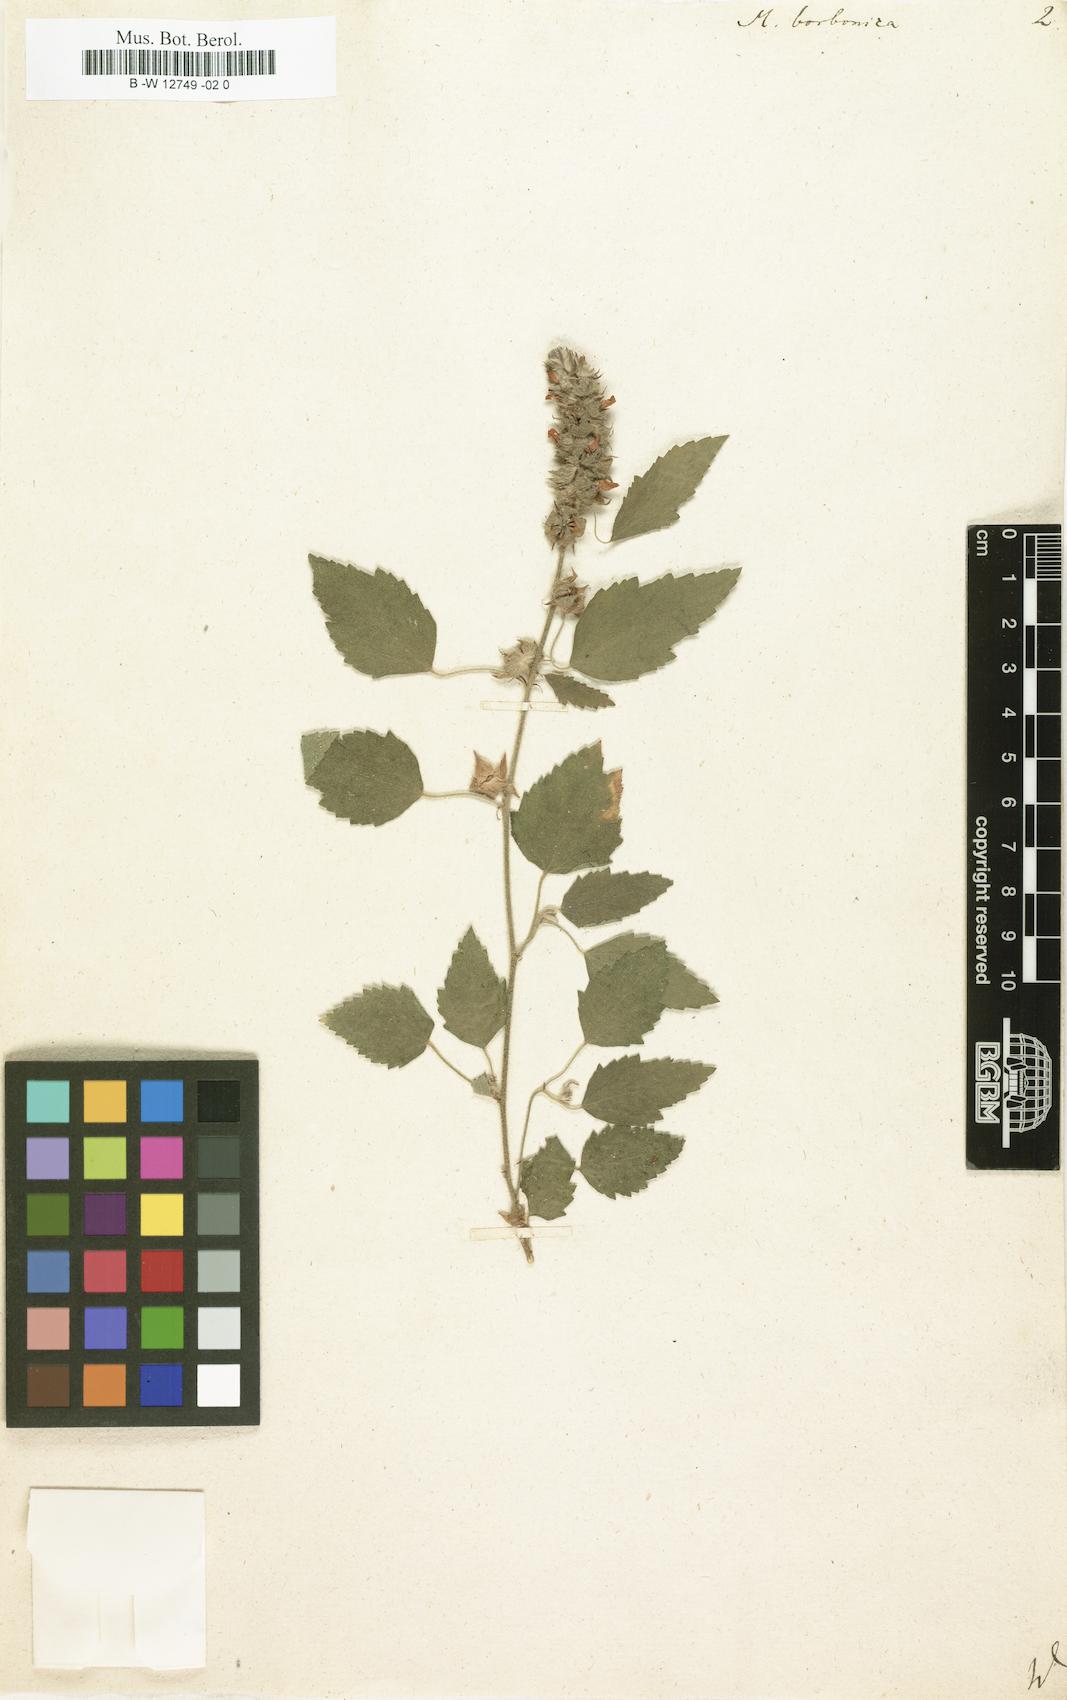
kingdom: Plantae
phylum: Tracheophyta
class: Magnoliopsida
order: Malvales
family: Malvaceae
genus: Malvastrum
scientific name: Malvastrum coromandelianum
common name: Threelobe false mallow
